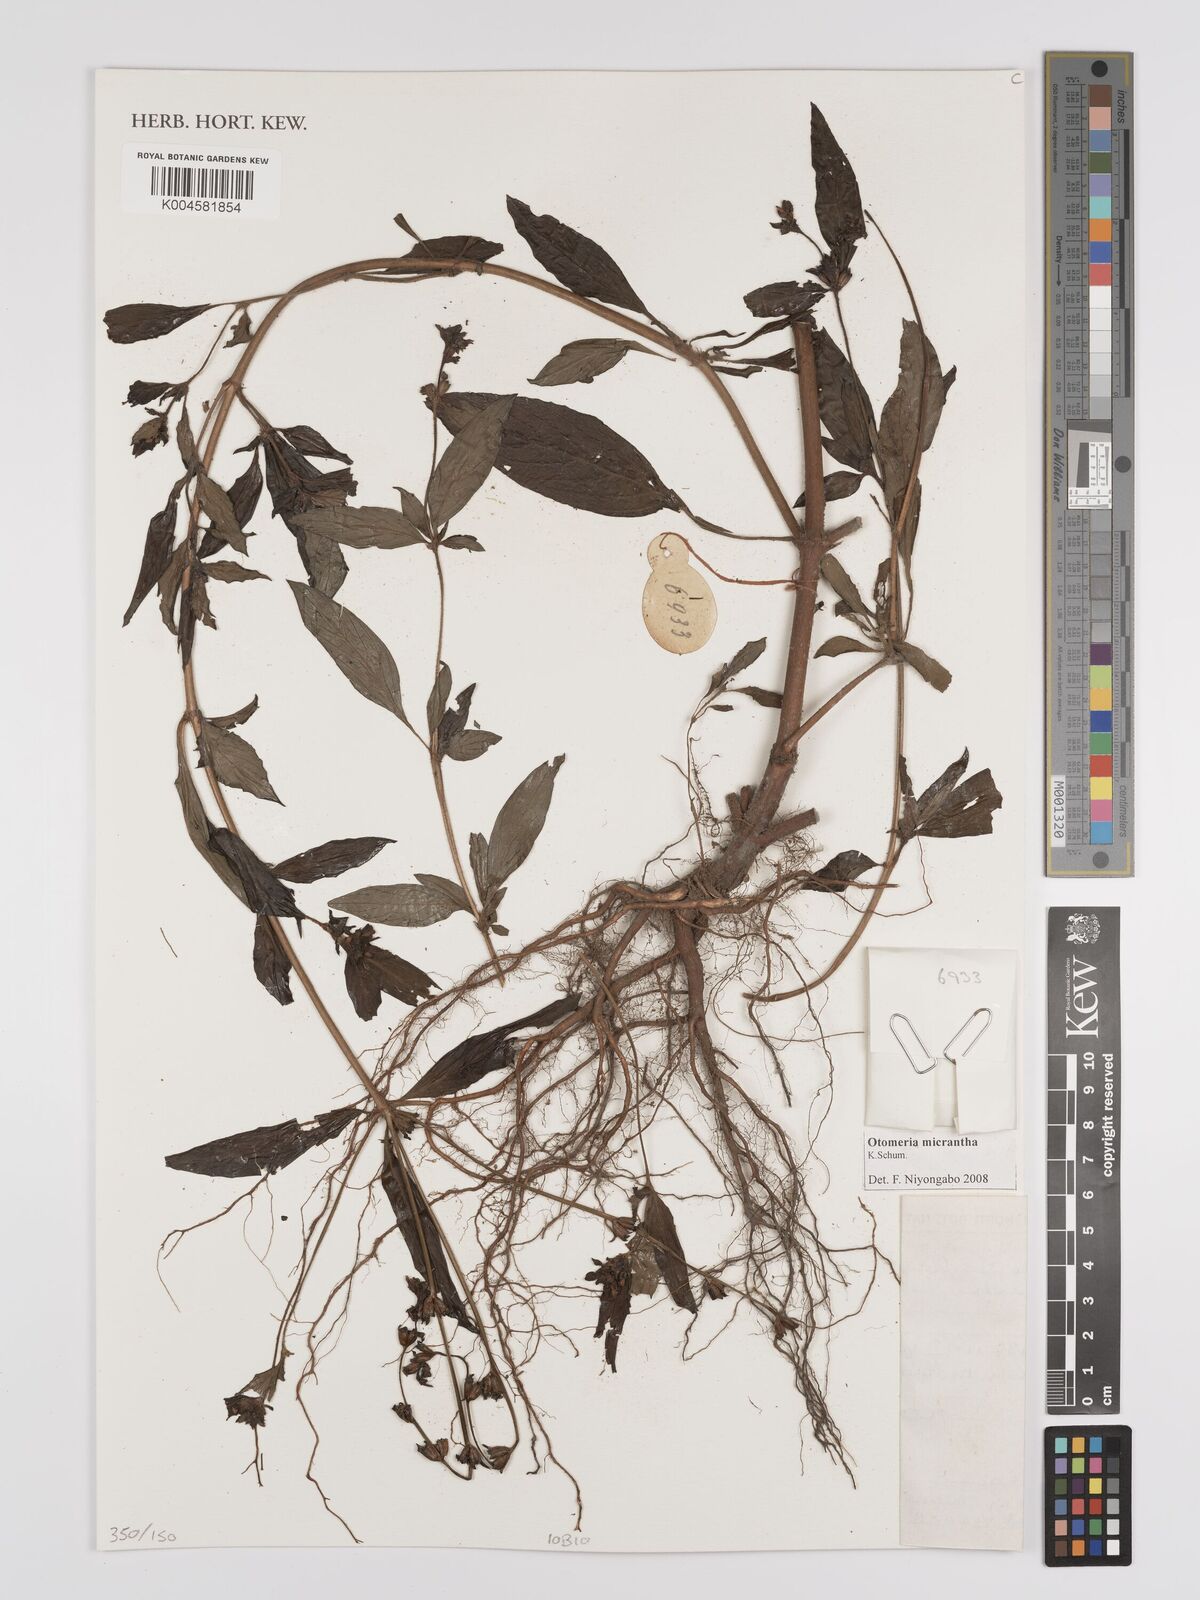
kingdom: Plantae
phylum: Tracheophyta
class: Magnoliopsida
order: Gentianales
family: Rubiaceae
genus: Otomeria
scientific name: Otomeria micrantha
